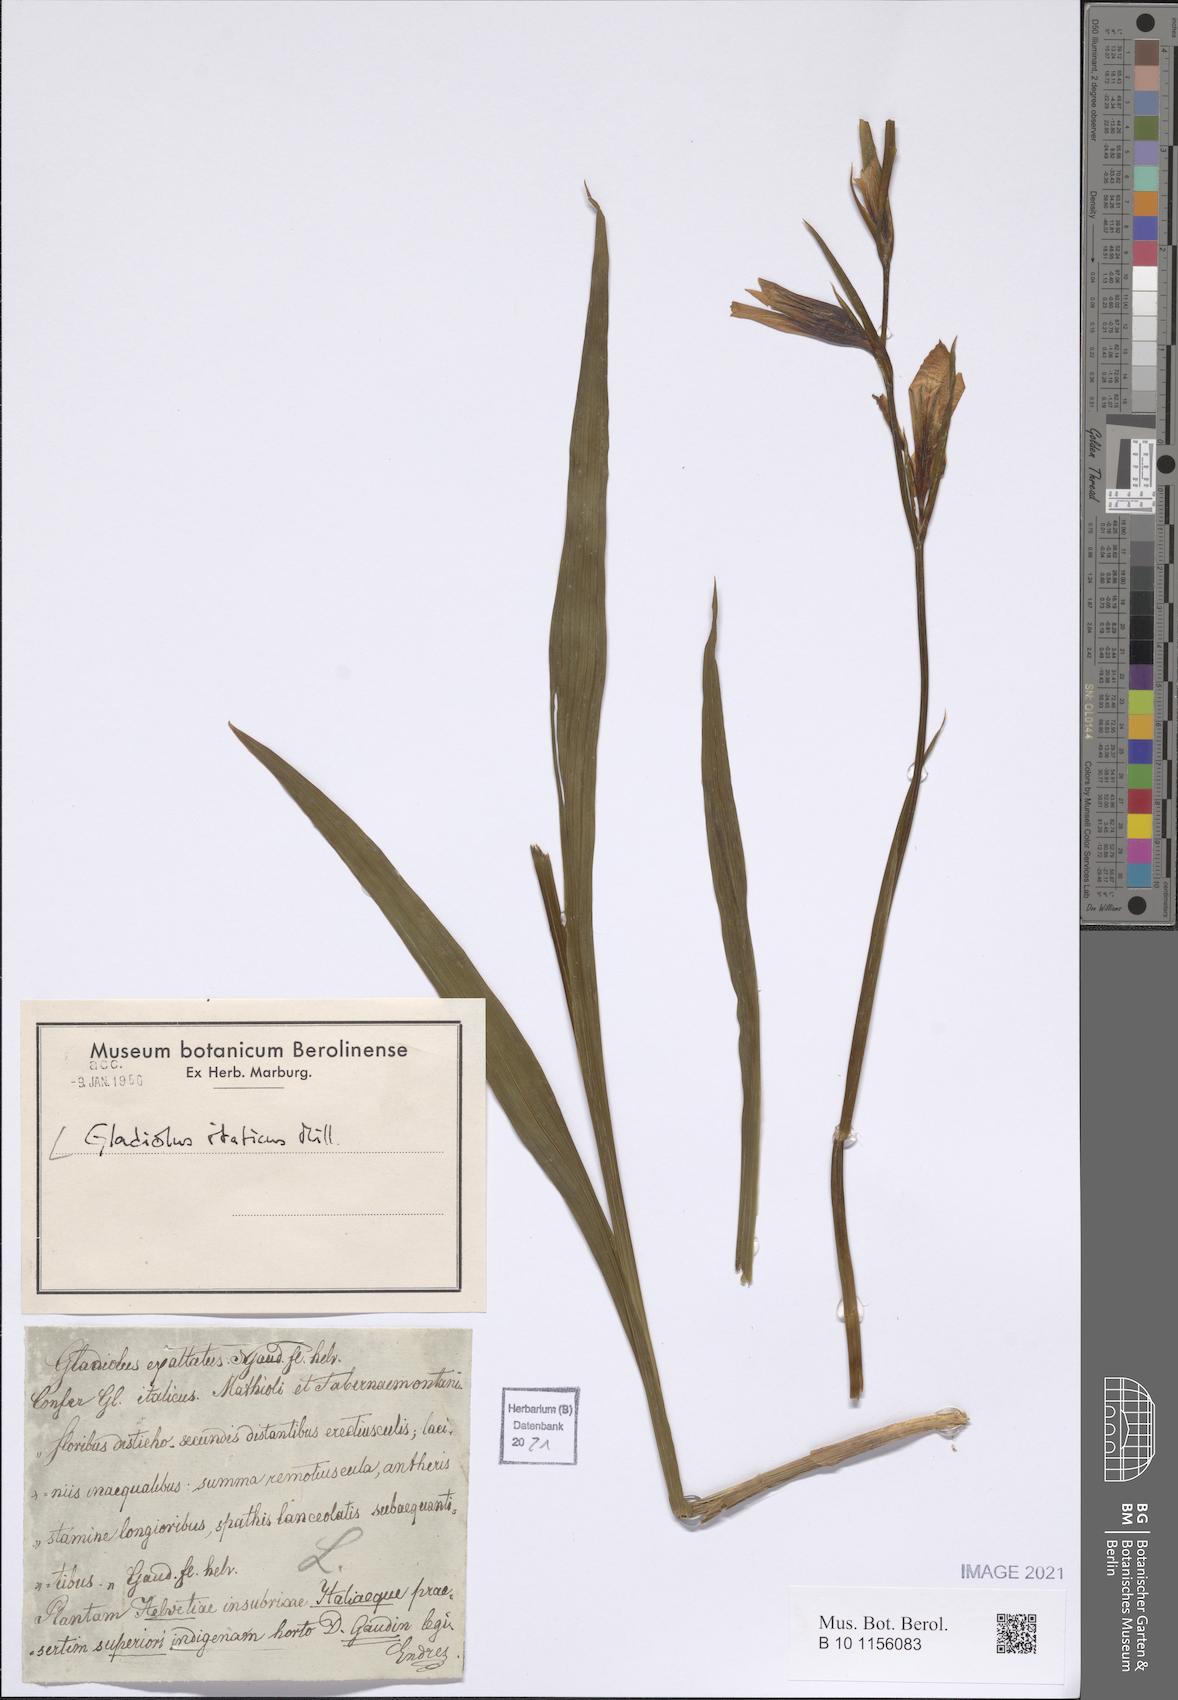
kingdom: Plantae
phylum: Tracheophyta
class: Liliopsida
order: Asparagales
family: Iridaceae
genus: Gladiolus
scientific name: Gladiolus italicus
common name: Field gladiolus
